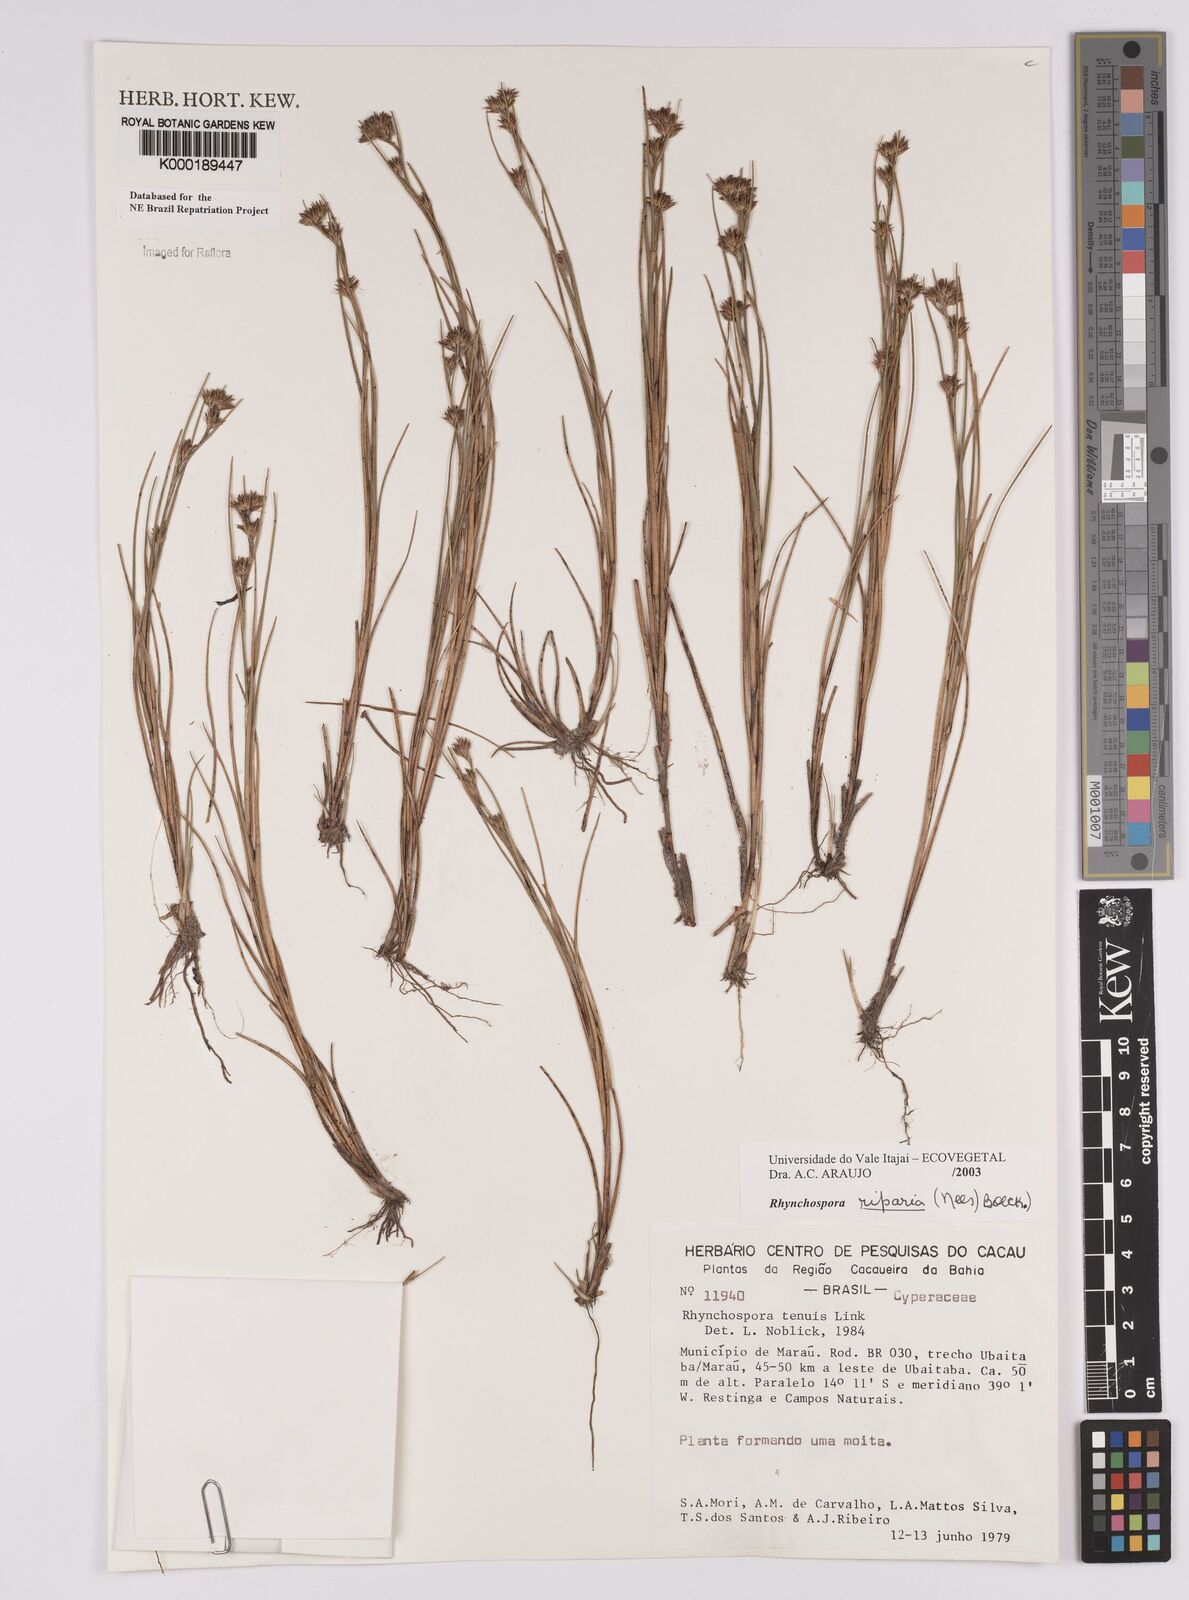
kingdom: Plantae
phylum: Tracheophyta
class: Liliopsida
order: Poales
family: Cyperaceae
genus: Rhynchospora
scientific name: Rhynchospora riparia
